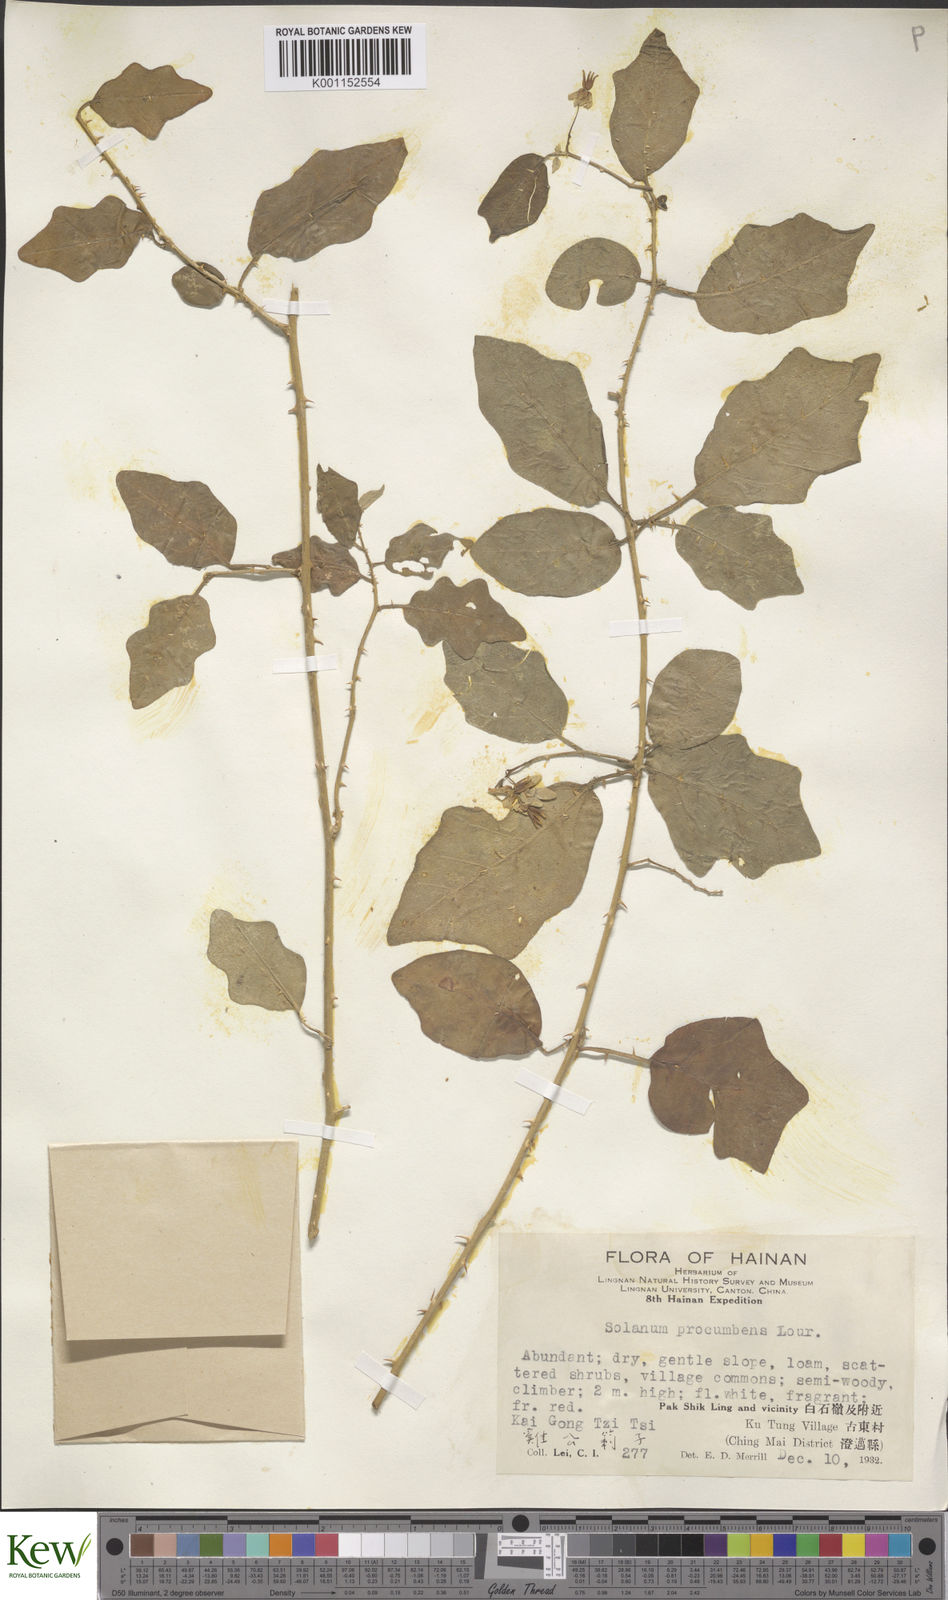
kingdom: Plantae
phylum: Tracheophyta
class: Magnoliopsida
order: Solanales
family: Solanaceae
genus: Solanum
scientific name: Solanum procumbens
